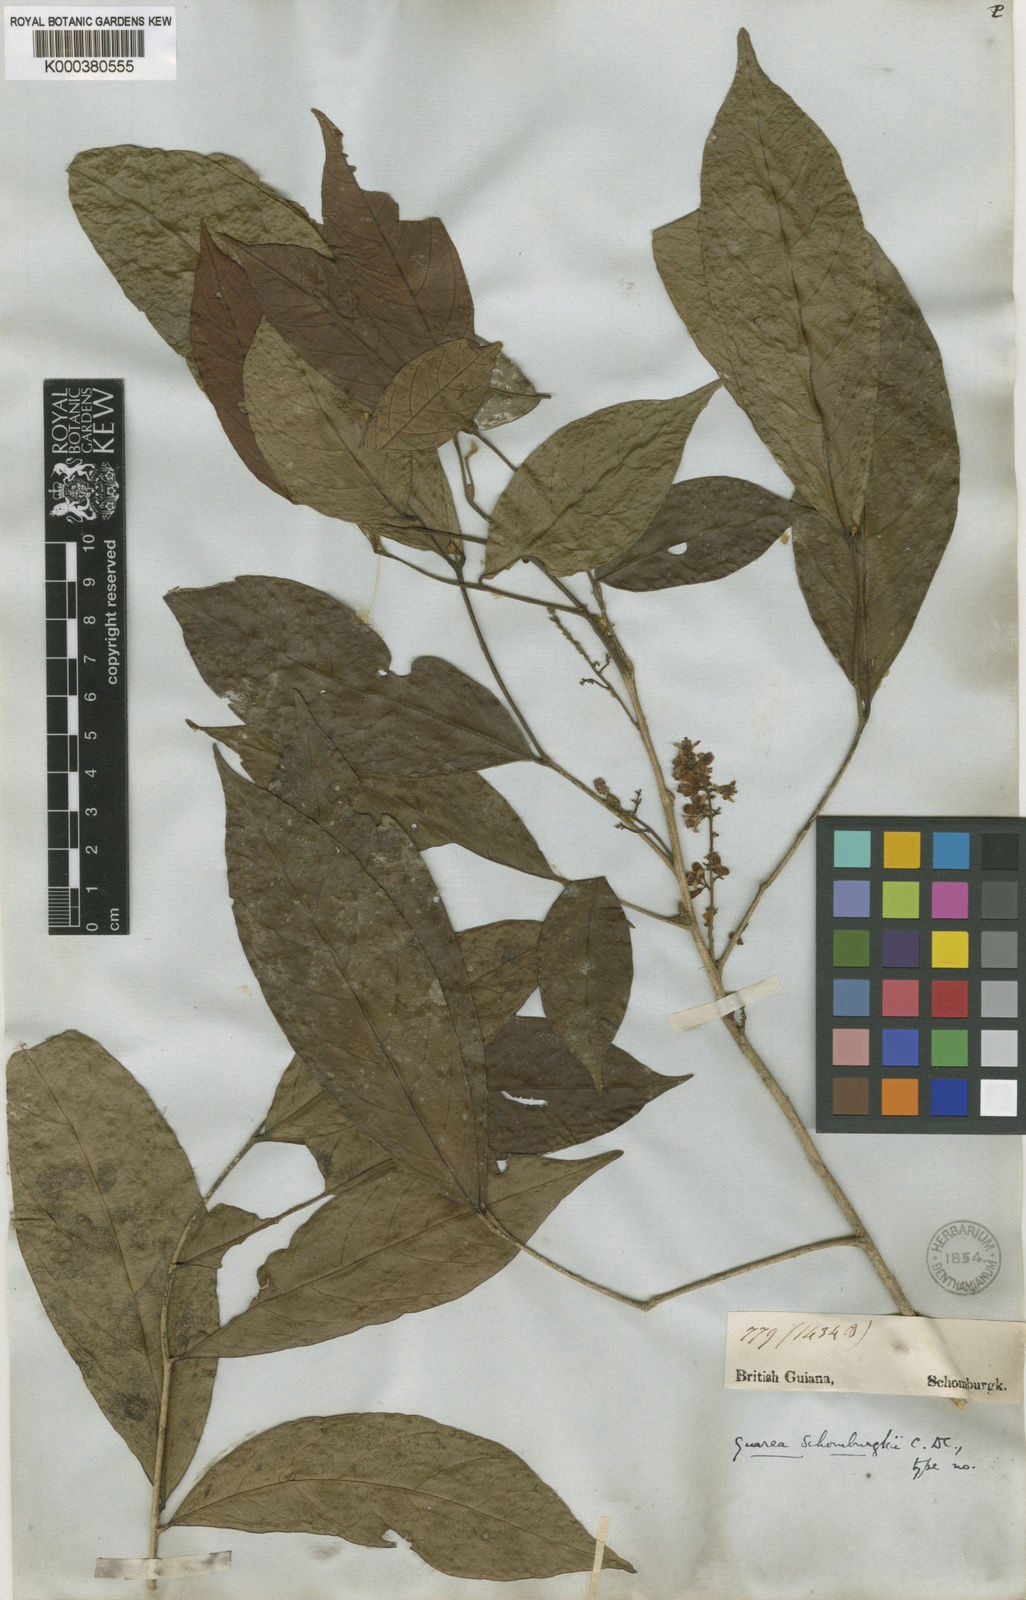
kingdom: Plantae
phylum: Tracheophyta
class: Magnoliopsida
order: Sapindales
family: Meliaceae
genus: Guarea
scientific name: Guarea glabra
